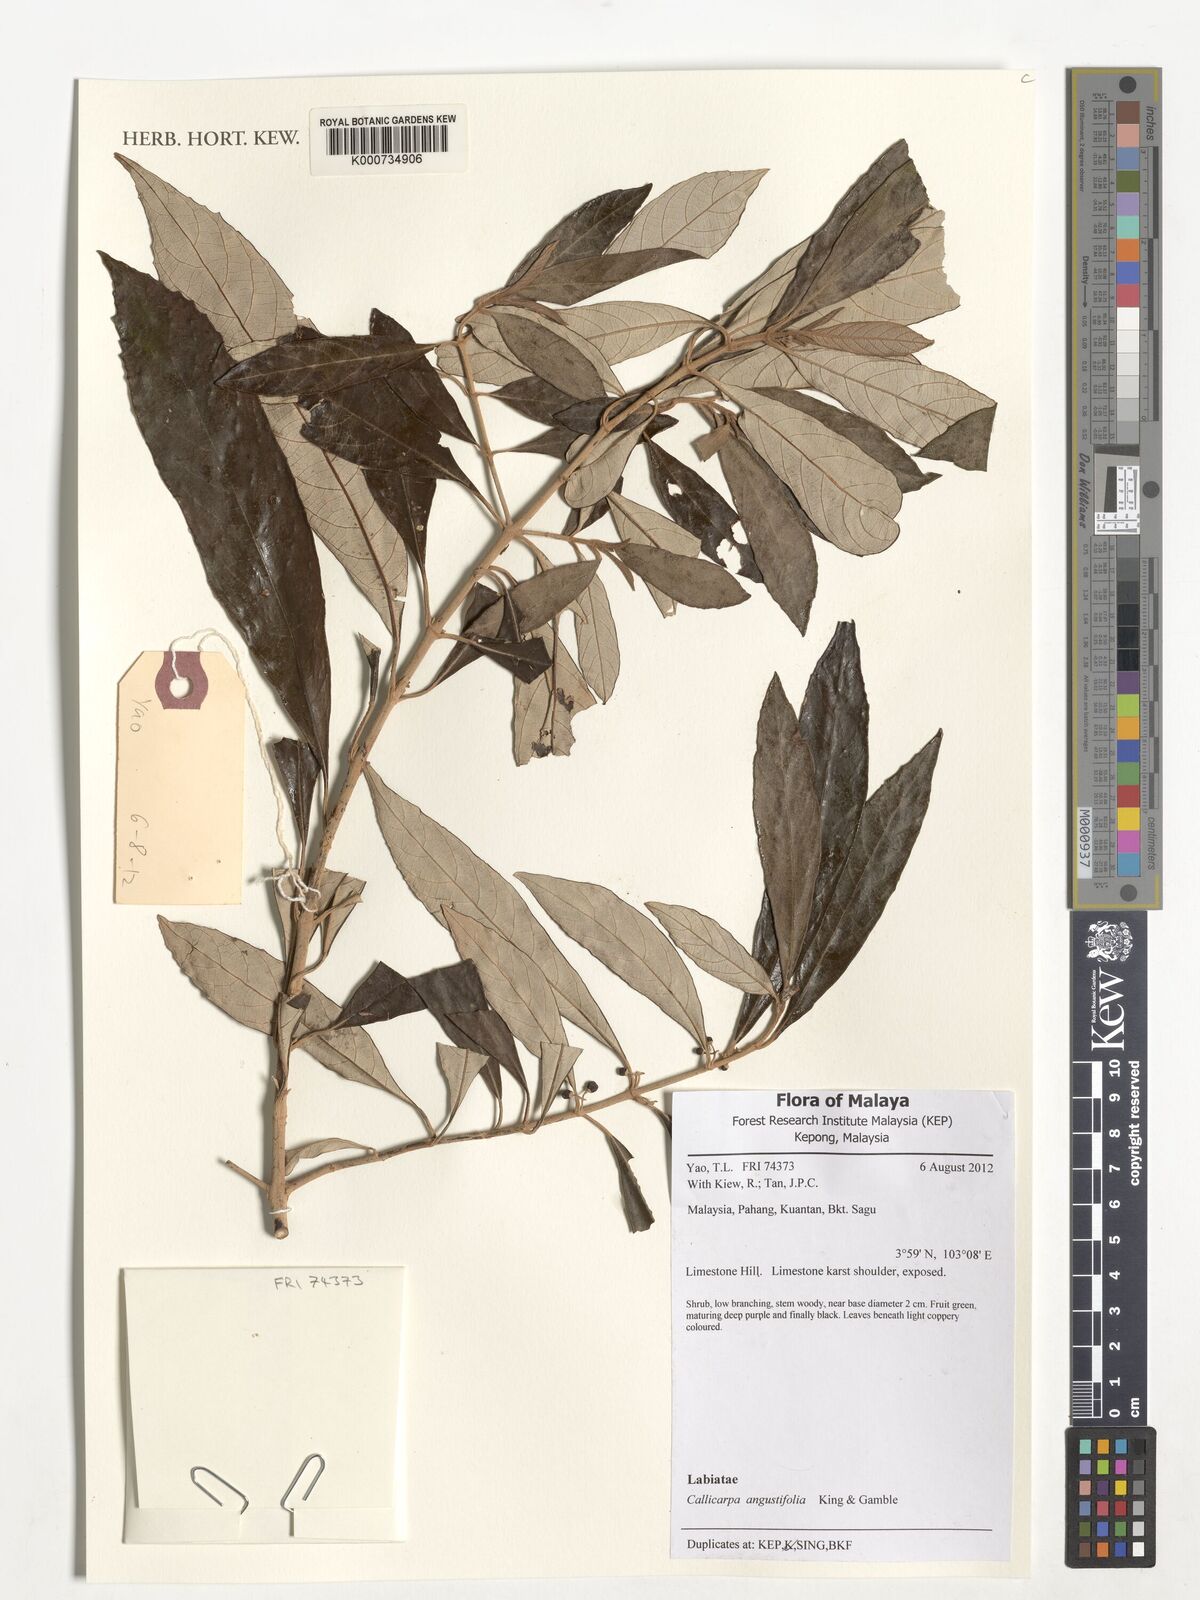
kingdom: Plantae
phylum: Tracheophyta
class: Magnoliopsida
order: Lamiales
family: Lamiaceae
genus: Callicarpa
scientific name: Callicarpa angustifolia
